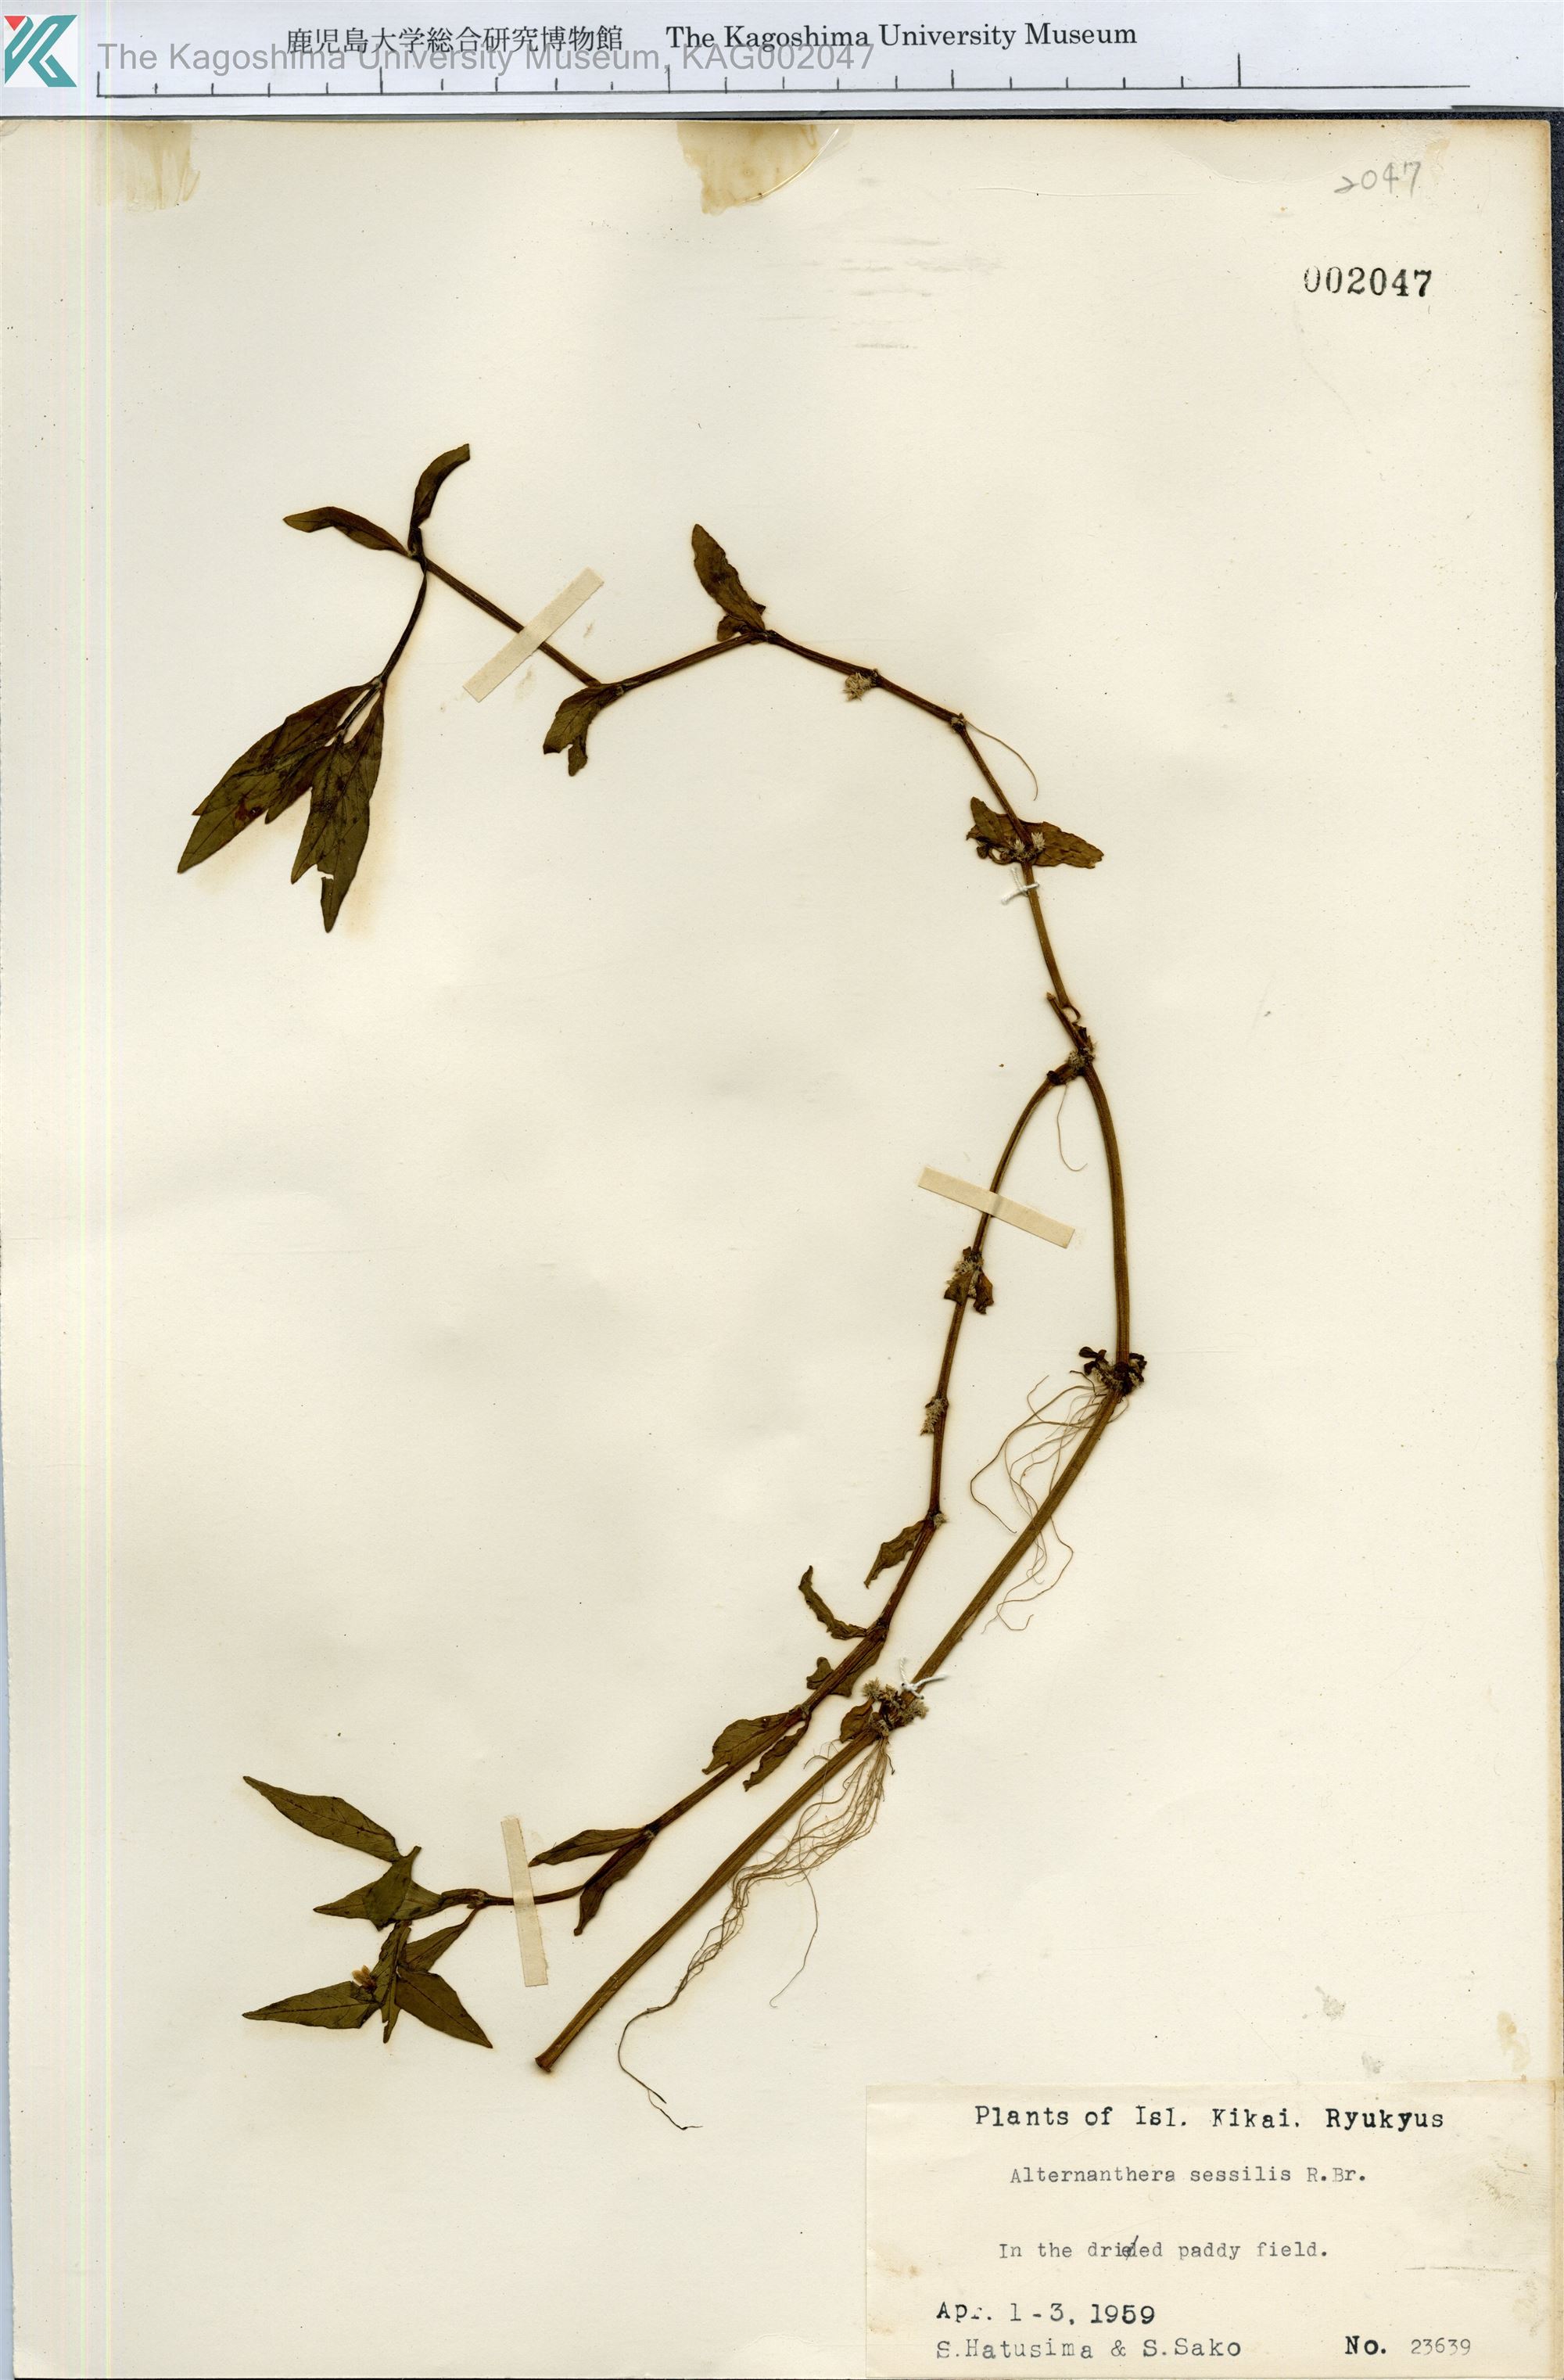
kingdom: Plantae
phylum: Tracheophyta
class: Magnoliopsida
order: Caryophyllales
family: Amaranthaceae
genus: Alternanthera
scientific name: Alternanthera sessilis
